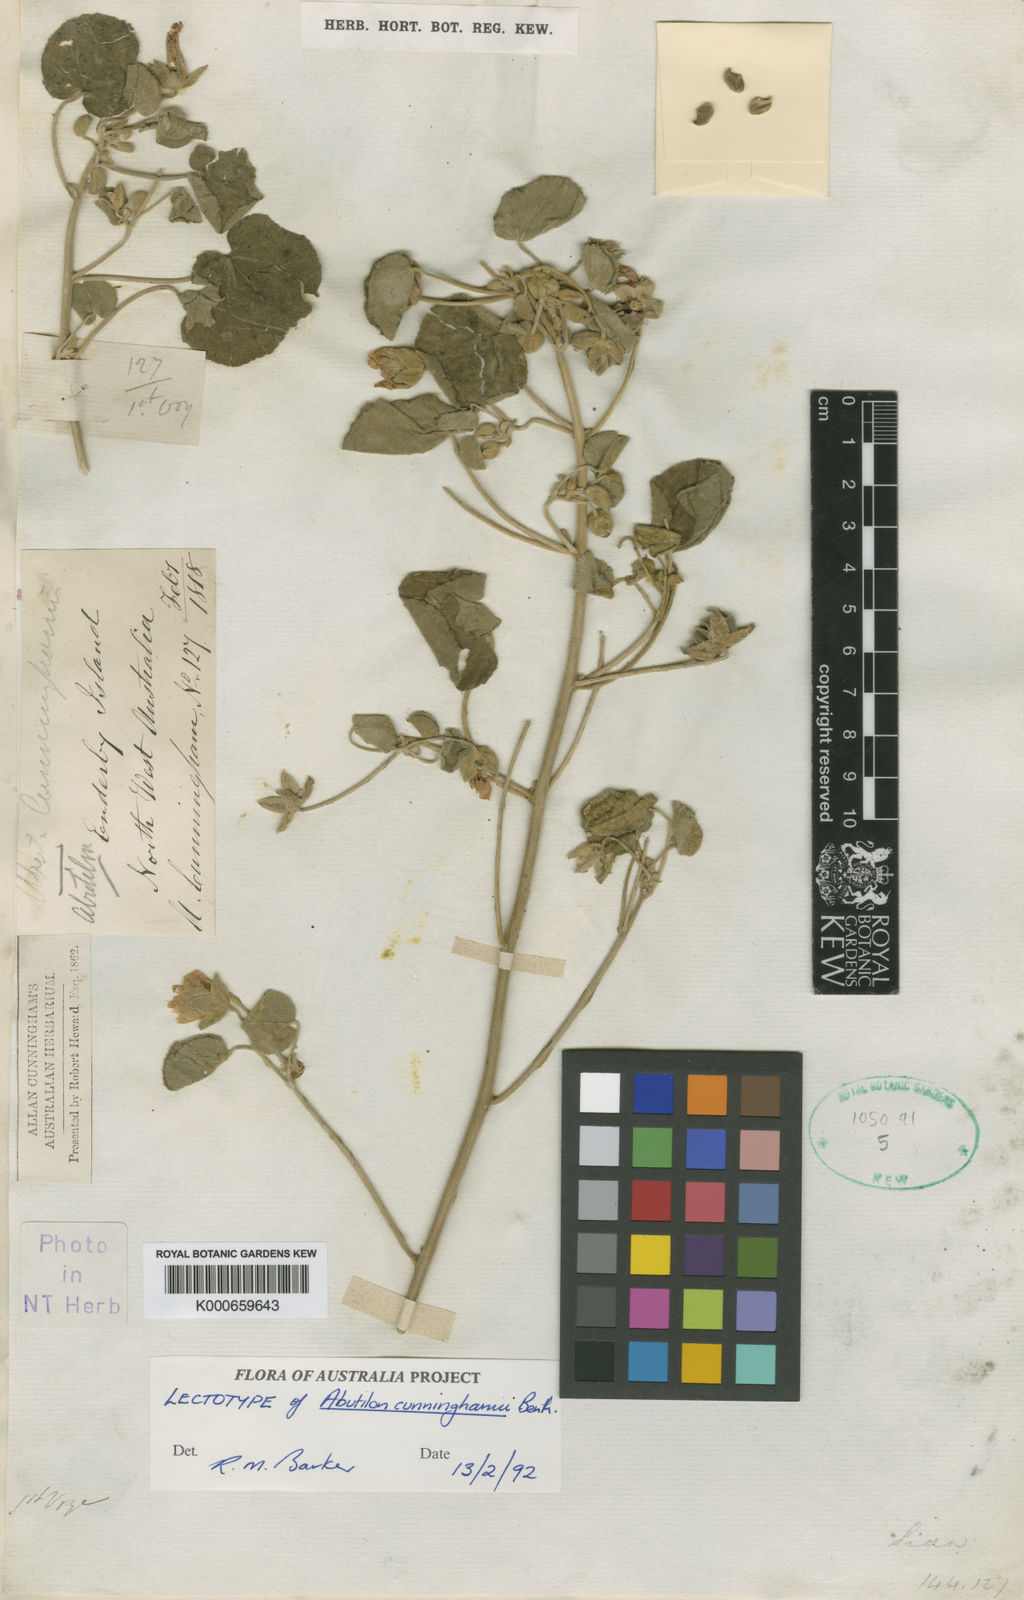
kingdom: Plantae
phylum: Tracheophyta
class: Magnoliopsida
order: Malvales
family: Malvaceae
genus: Abutilon
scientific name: Abutilon indicum
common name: Indian abutilon
